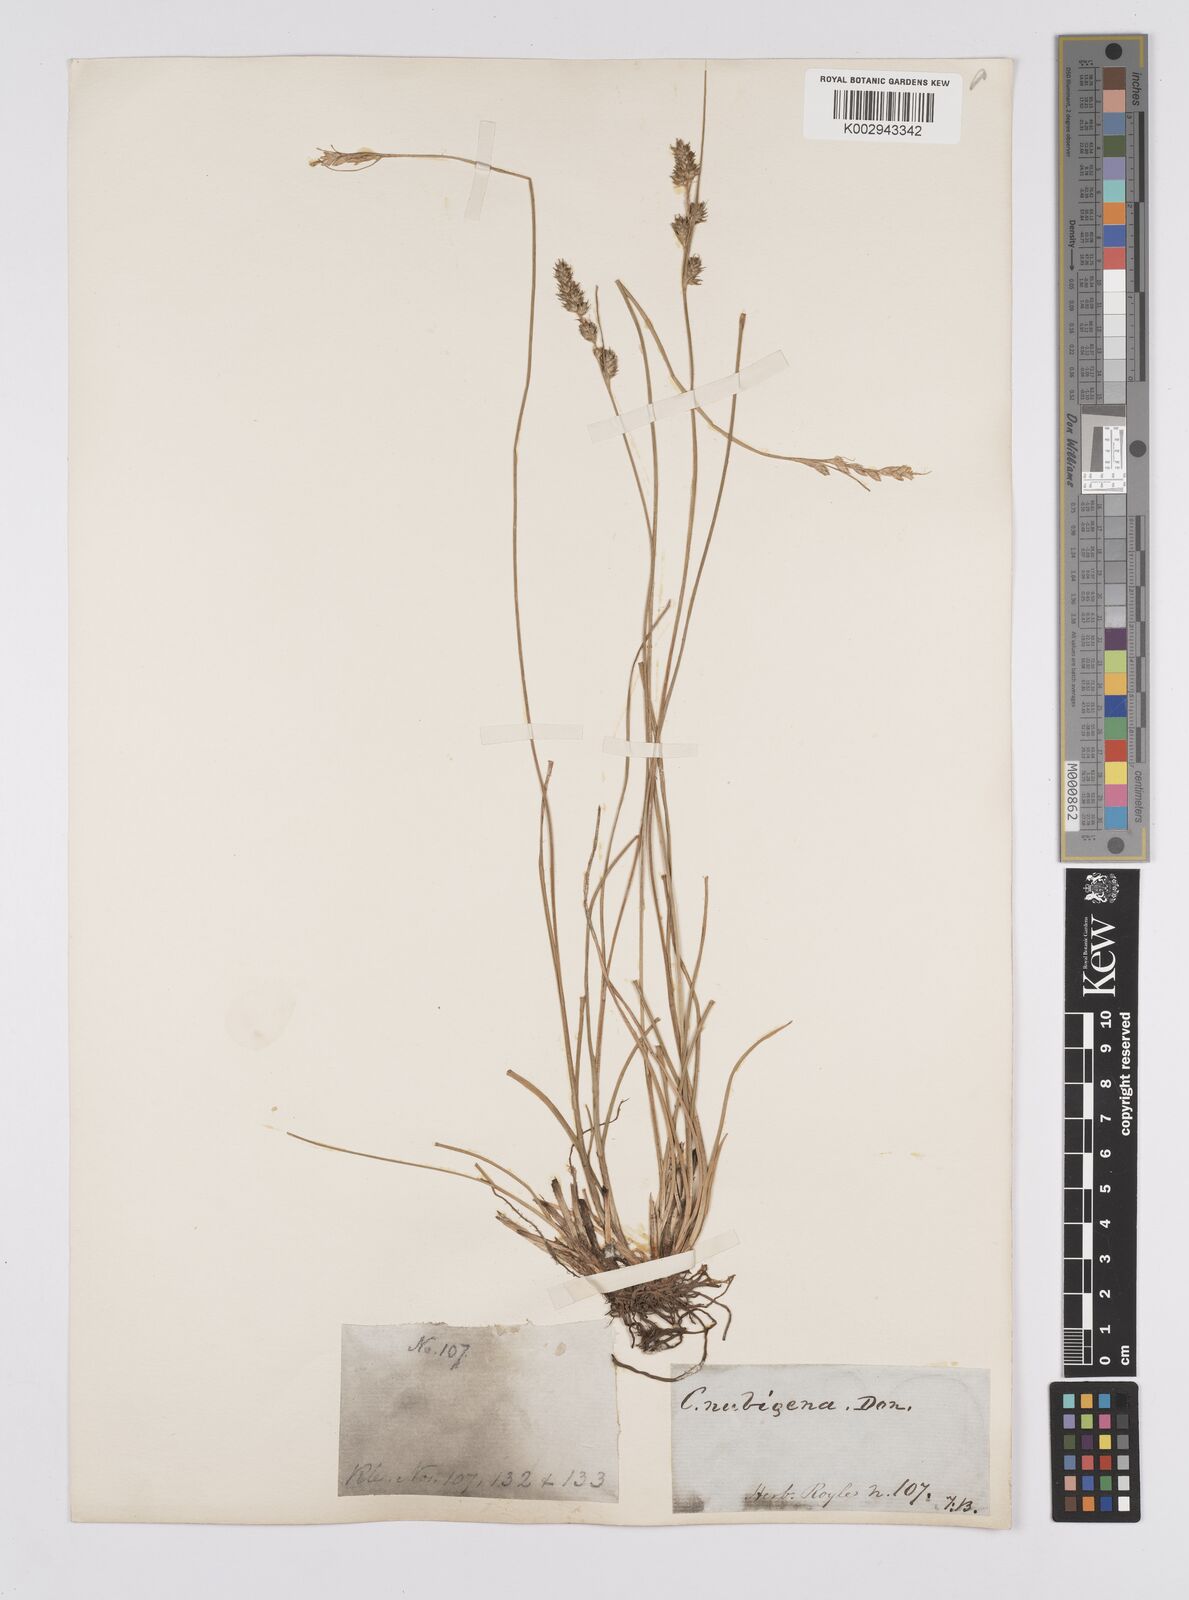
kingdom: Plantae
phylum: Tracheophyta
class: Liliopsida
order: Poales
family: Cyperaceae
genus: Carex
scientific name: Carex nubigena
